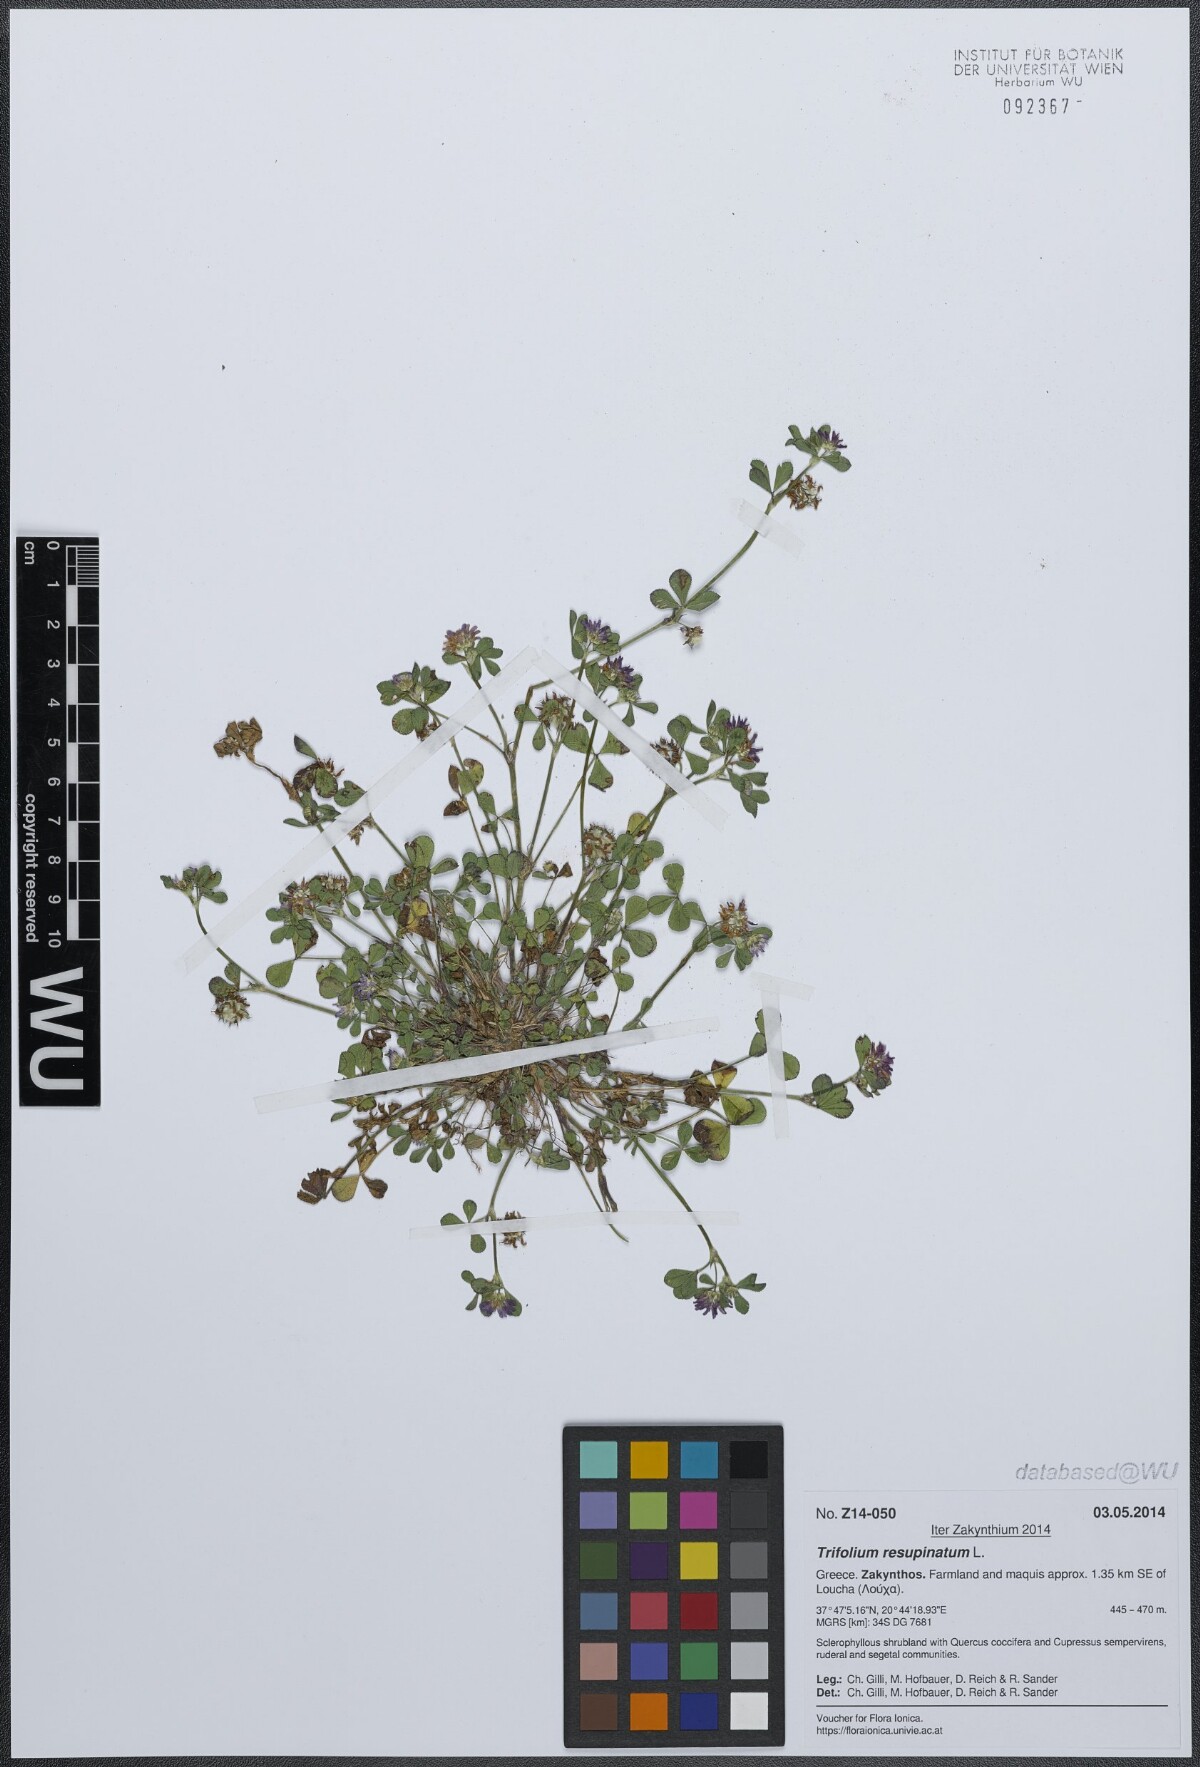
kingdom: Plantae
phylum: Tracheophyta
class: Magnoliopsida
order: Fabales
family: Fabaceae
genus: Trifolium
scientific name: Trifolium resupinatum
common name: Reversed clover
